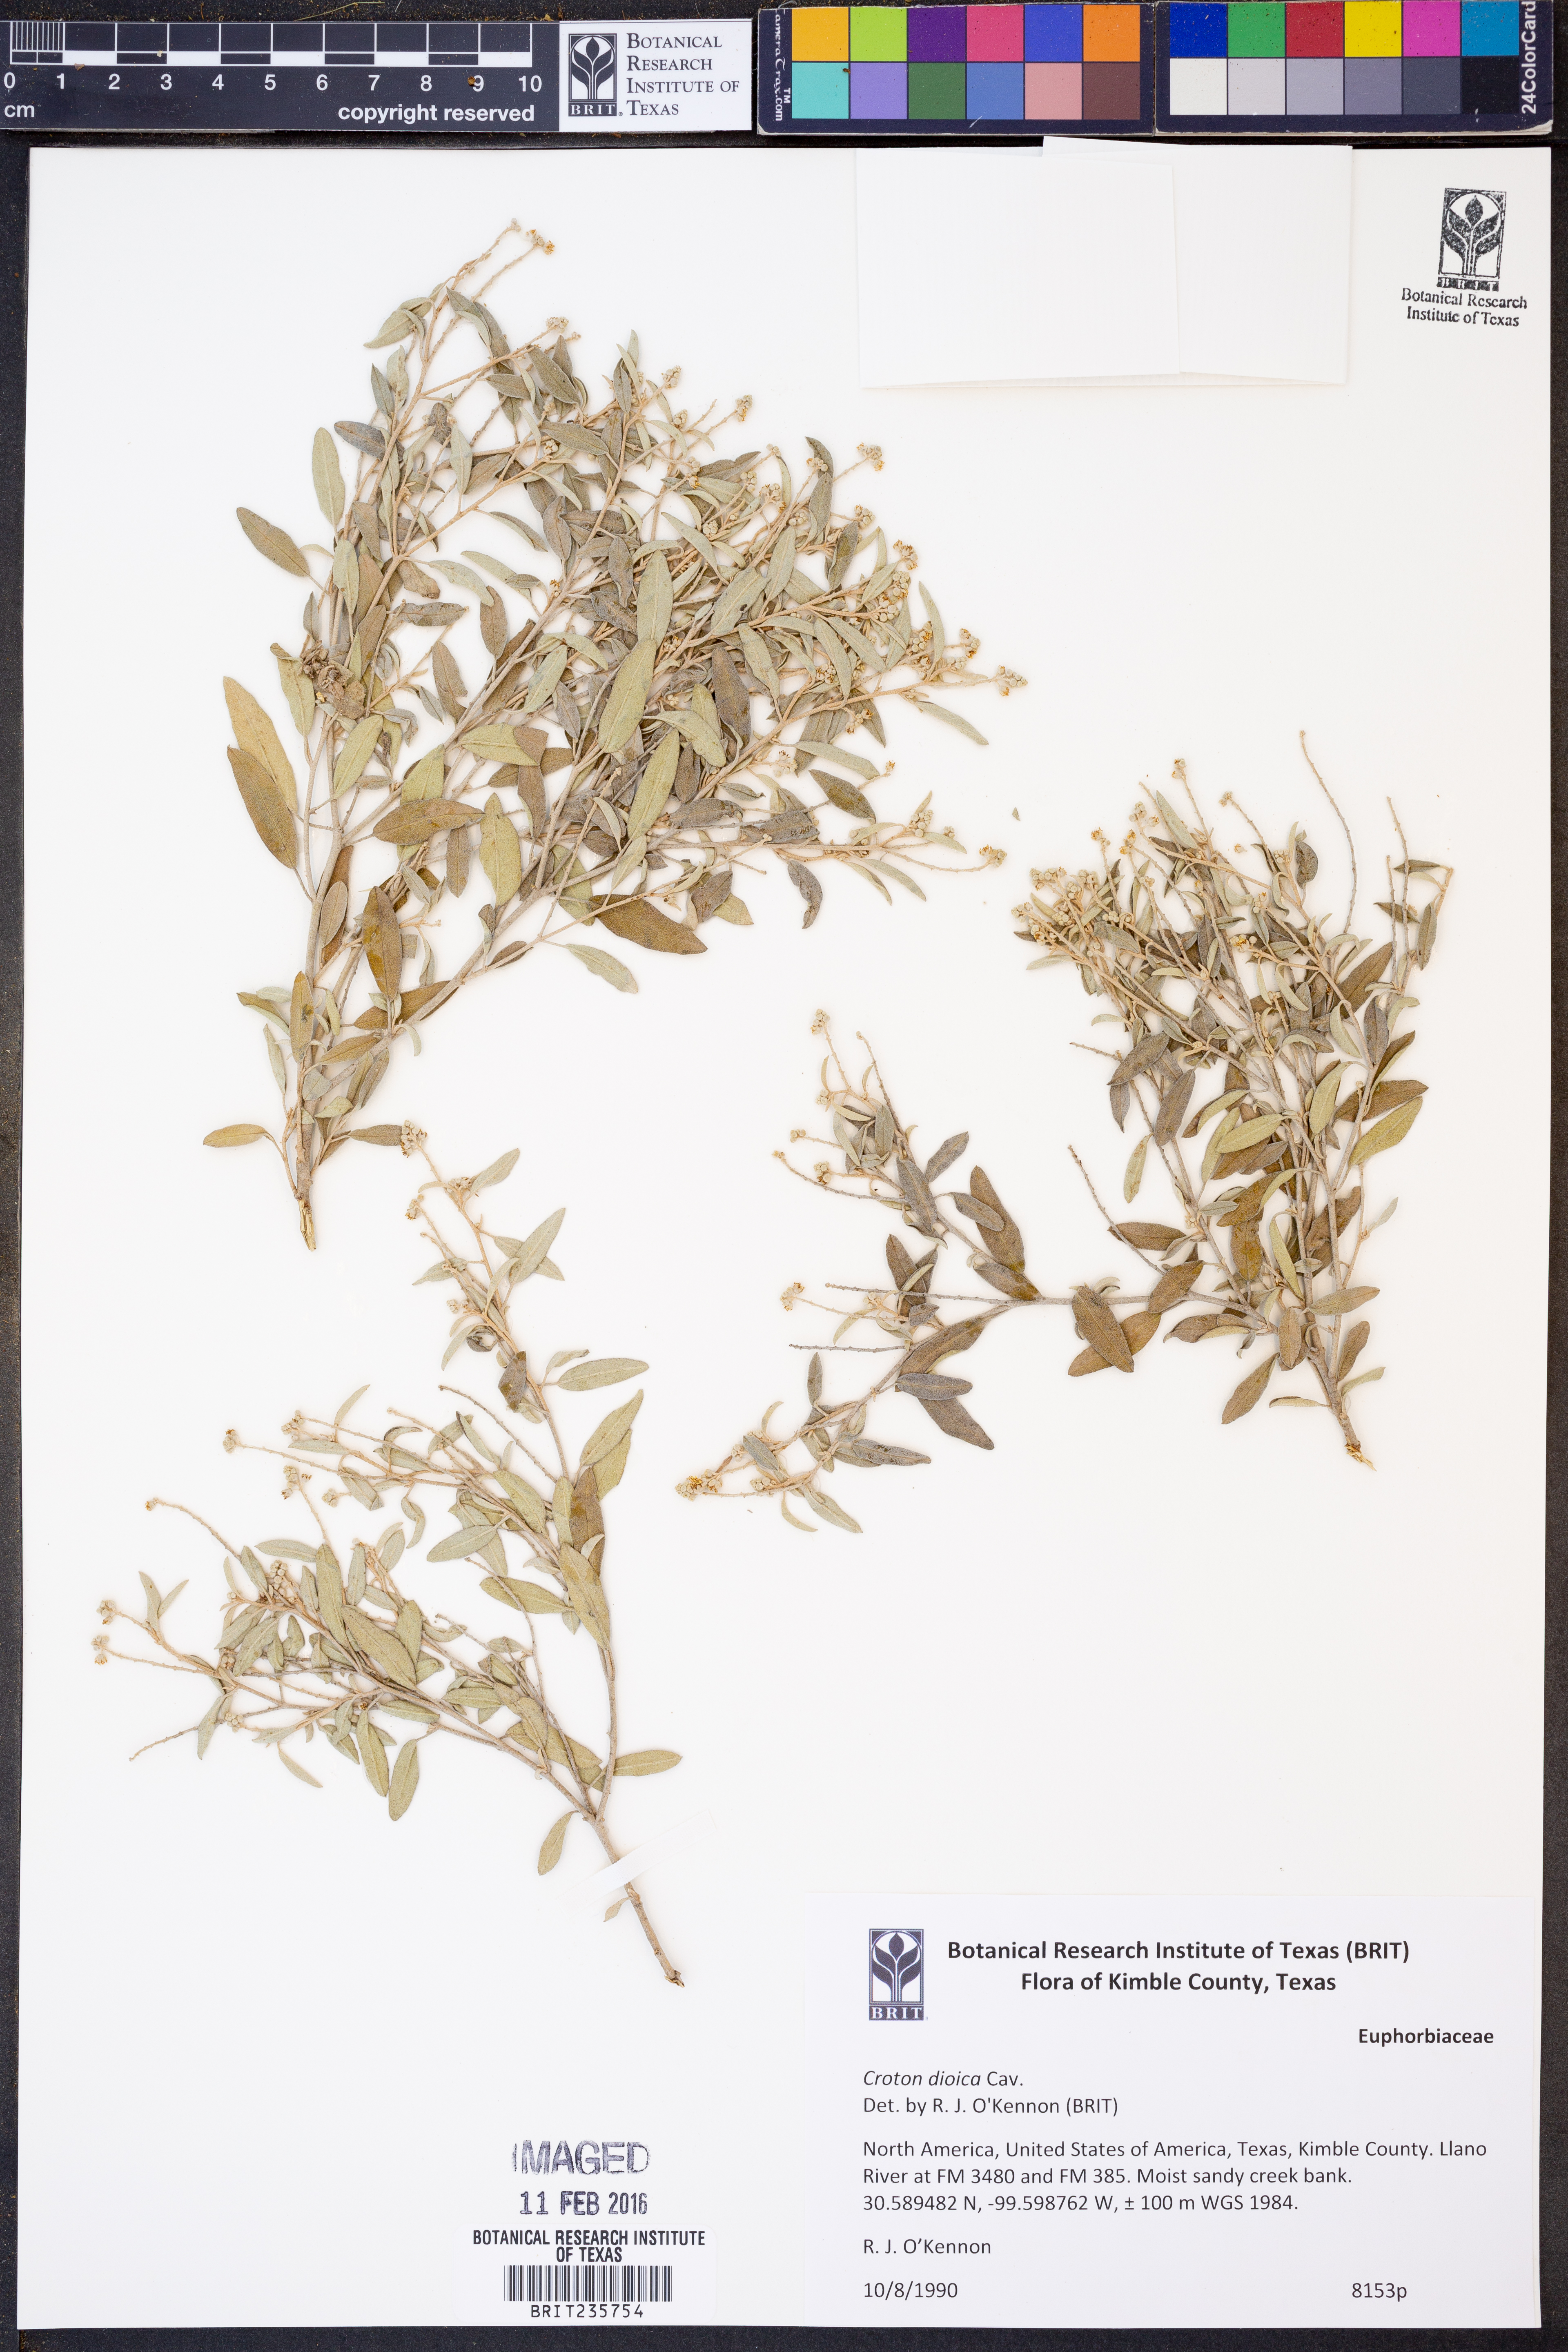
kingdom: Plantae
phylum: Tracheophyta
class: Magnoliopsida
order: Malpighiales
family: Euphorbiaceae
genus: Croton
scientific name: Croton dioicus
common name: Grassland croton
